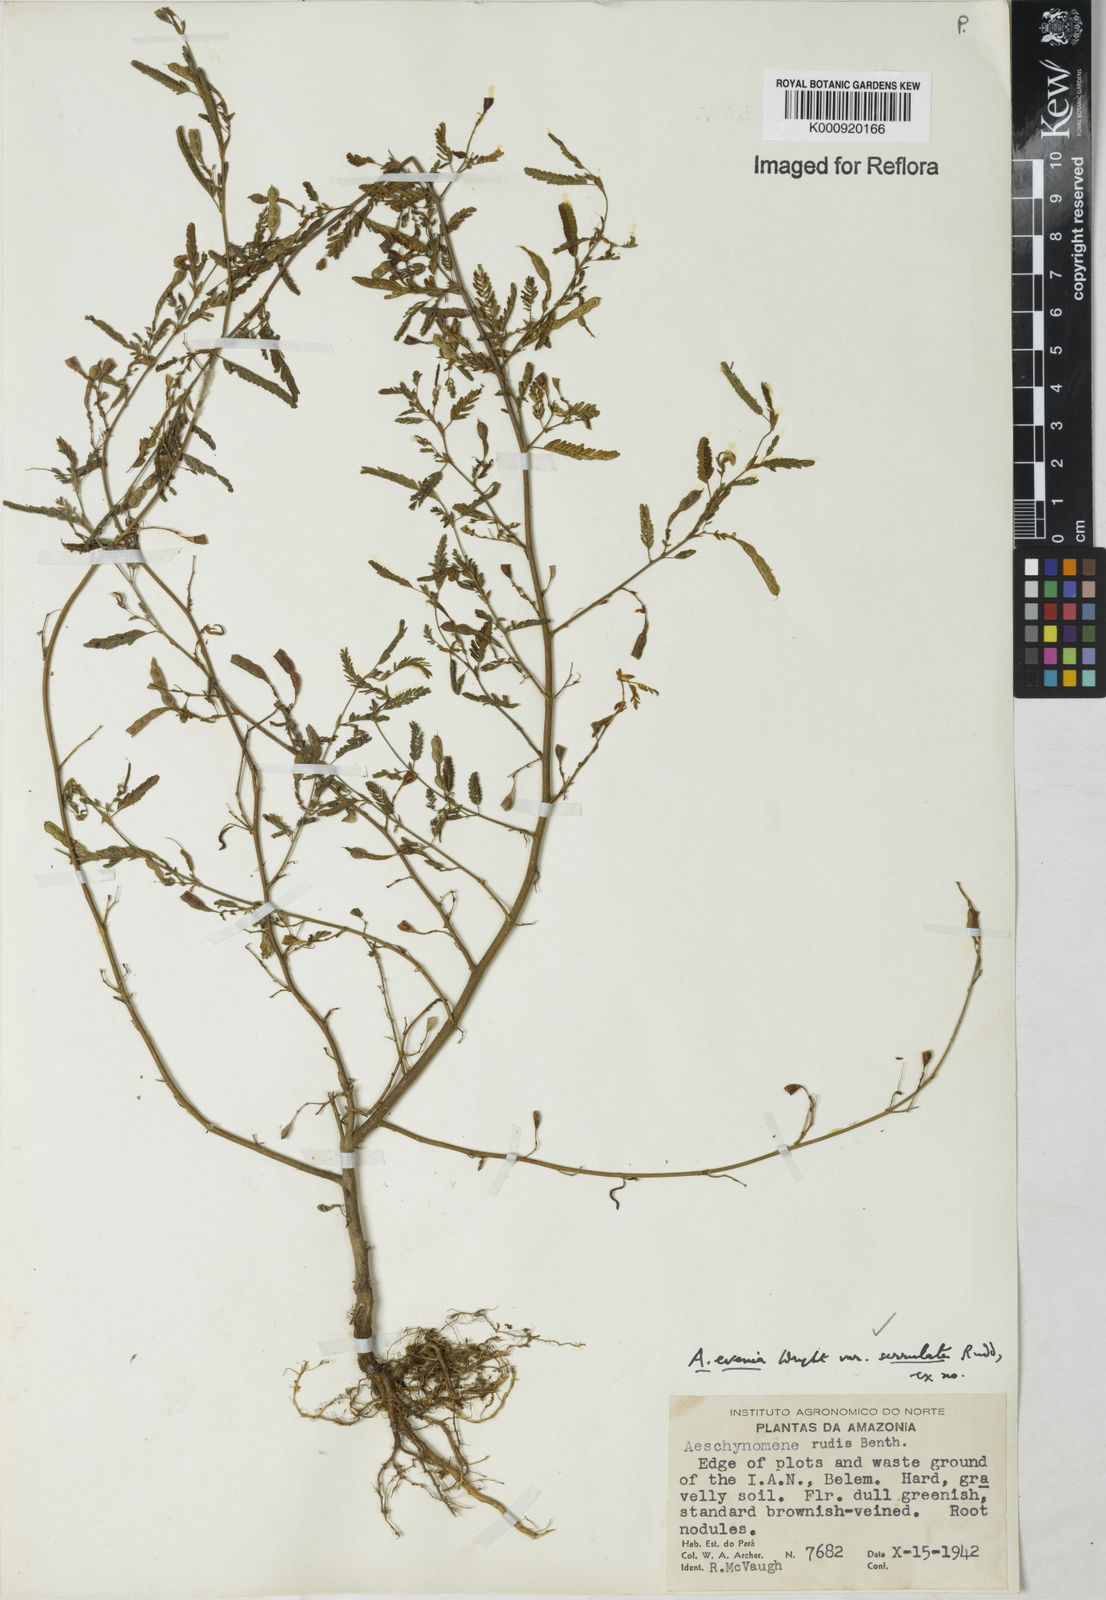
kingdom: Plantae
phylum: Tracheophyta
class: Magnoliopsida
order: Fabales
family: Fabaceae
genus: Aeschynomene
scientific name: Aeschynomene evenia
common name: Shrubby jointvetch
